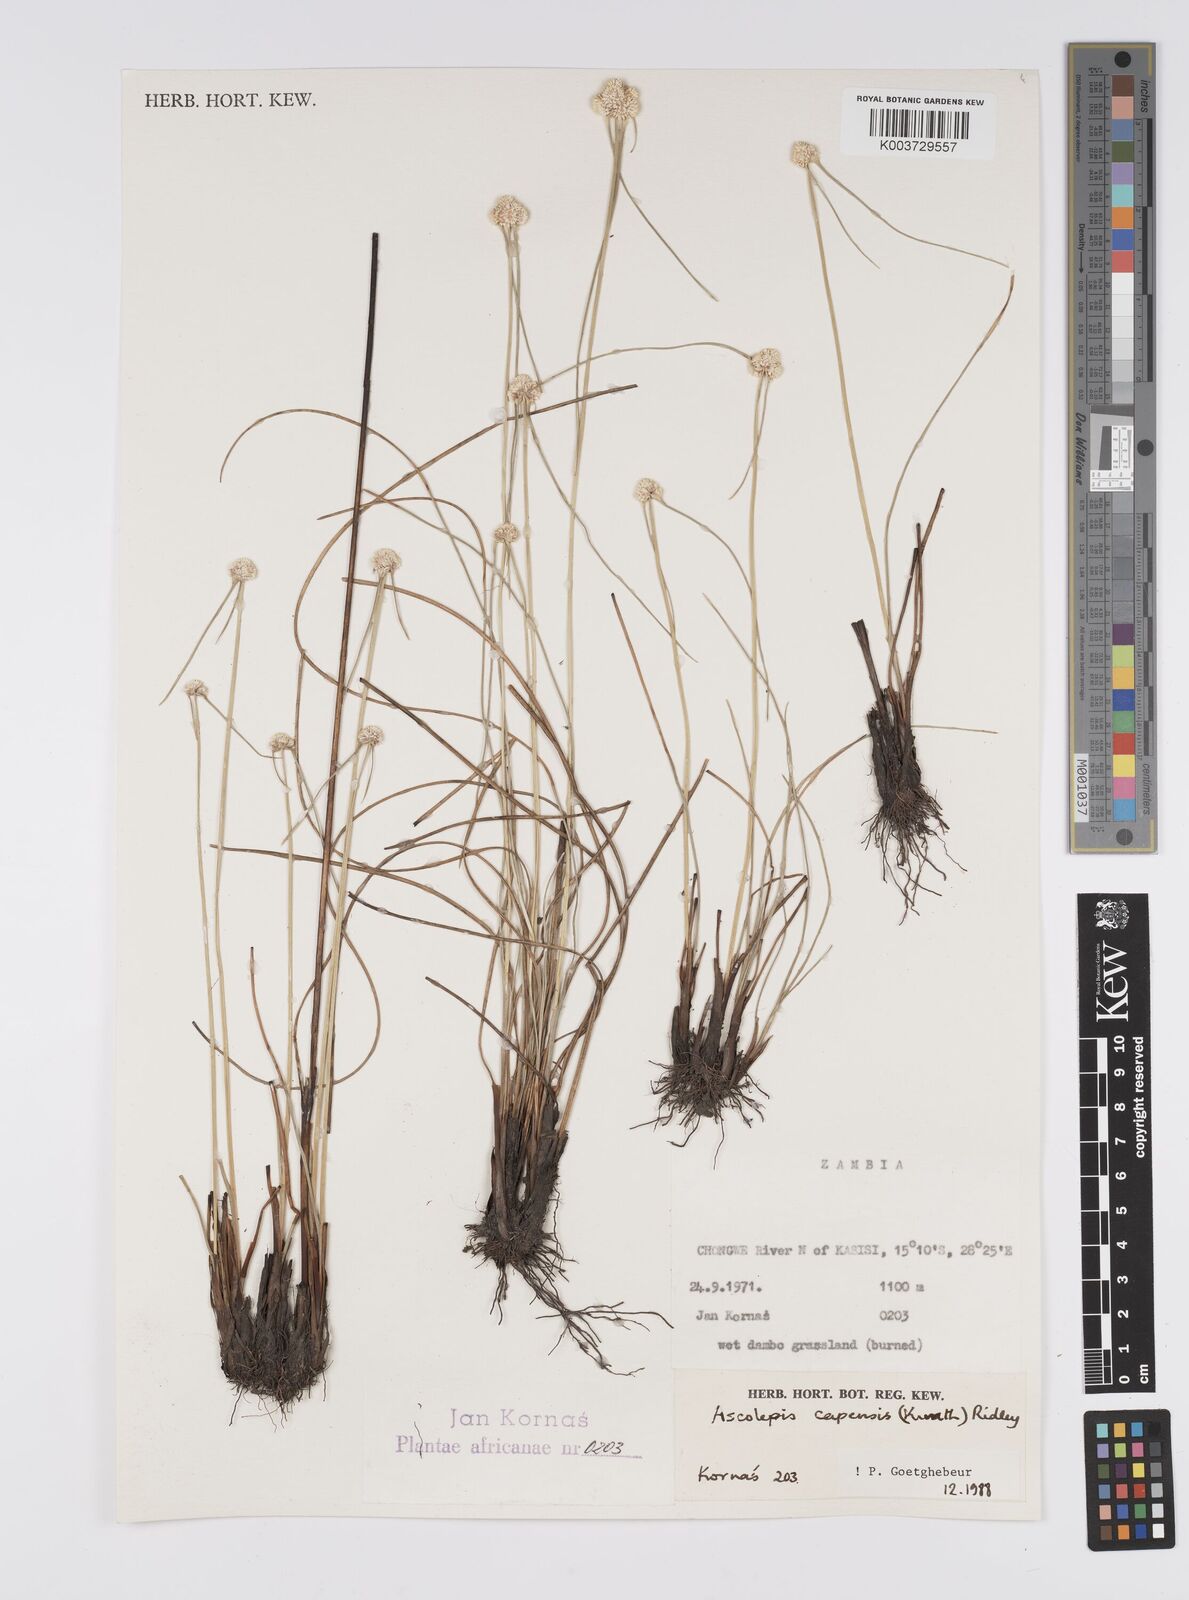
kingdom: Plantae
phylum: Tracheophyta
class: Liliopsida
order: Poales
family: Cyperaceae
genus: Cyperus
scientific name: Cyperus
